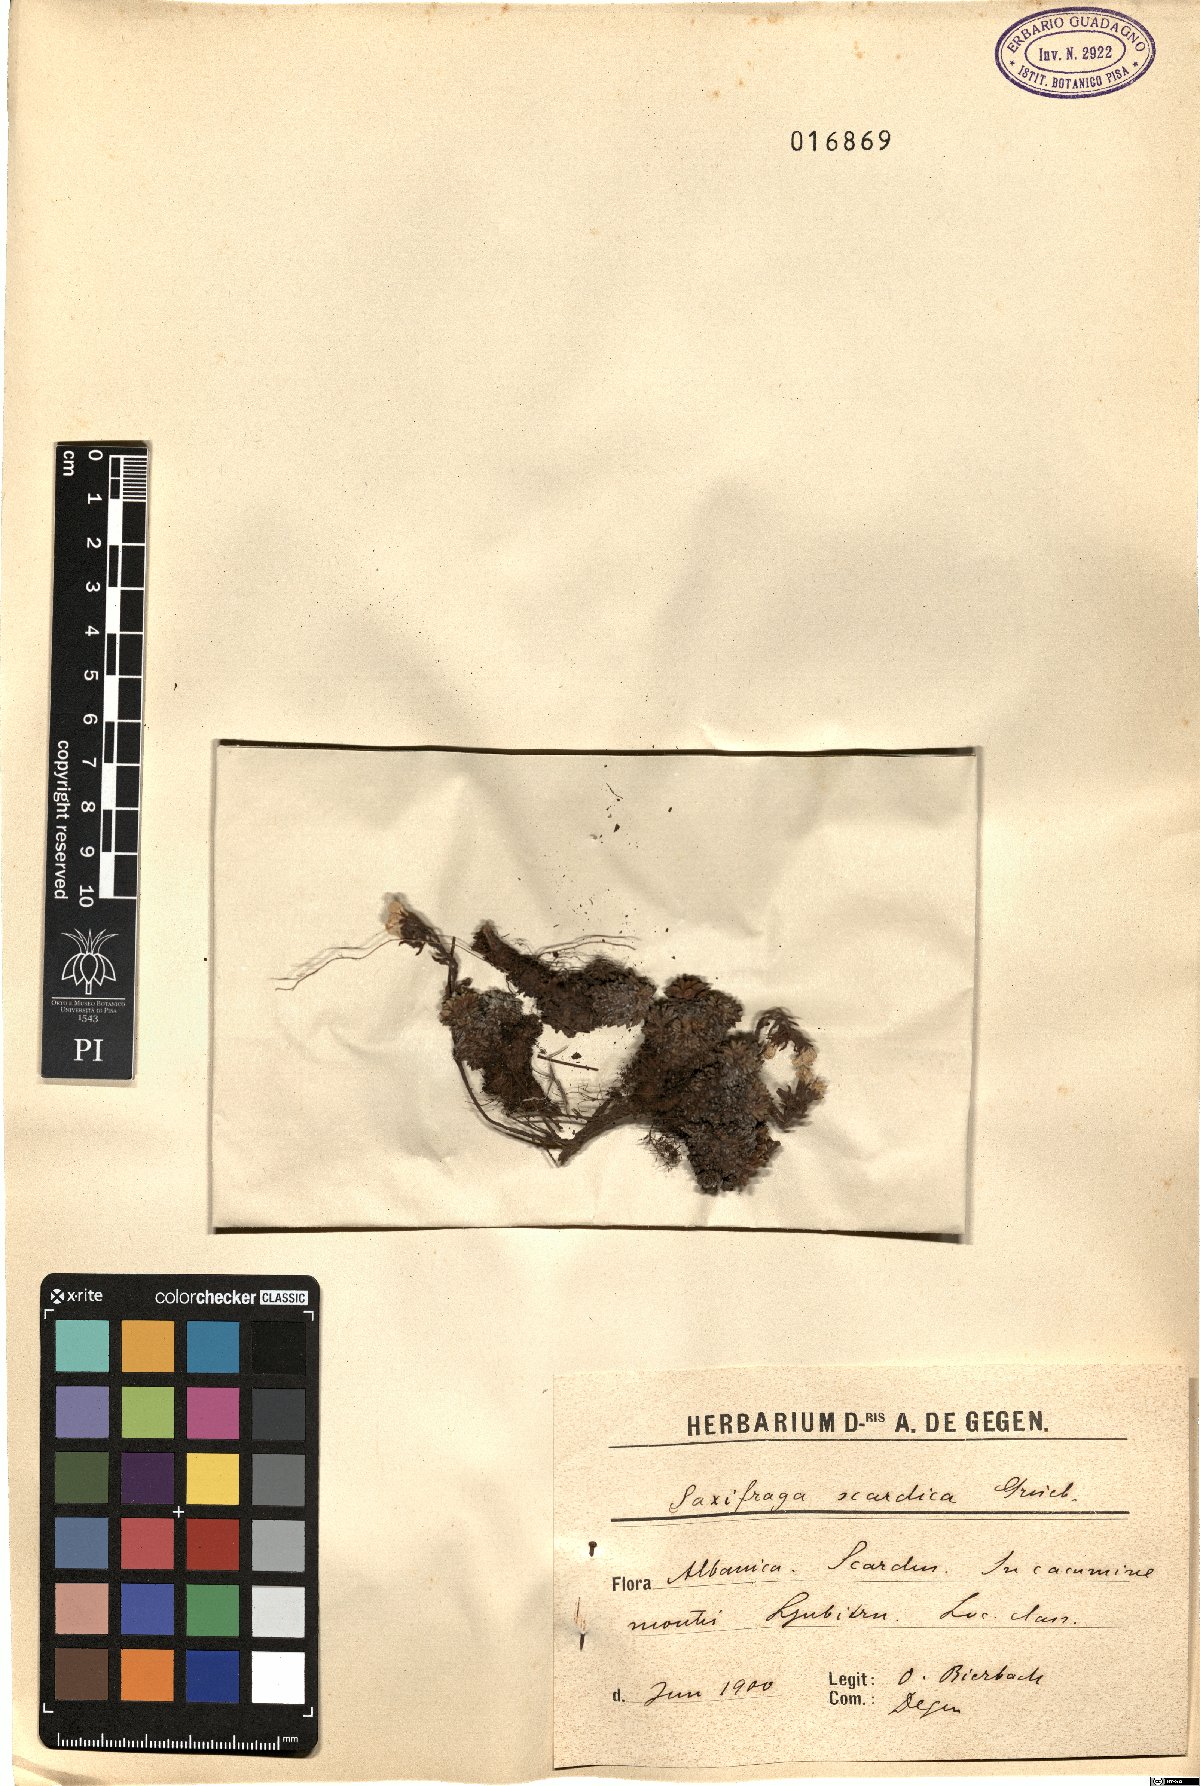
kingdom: Plantae
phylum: Tracheophyta
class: Magnoliopsida
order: Saxifragales
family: Saxifragaceae
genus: Saxifraga
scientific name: Saxifraga scardica
